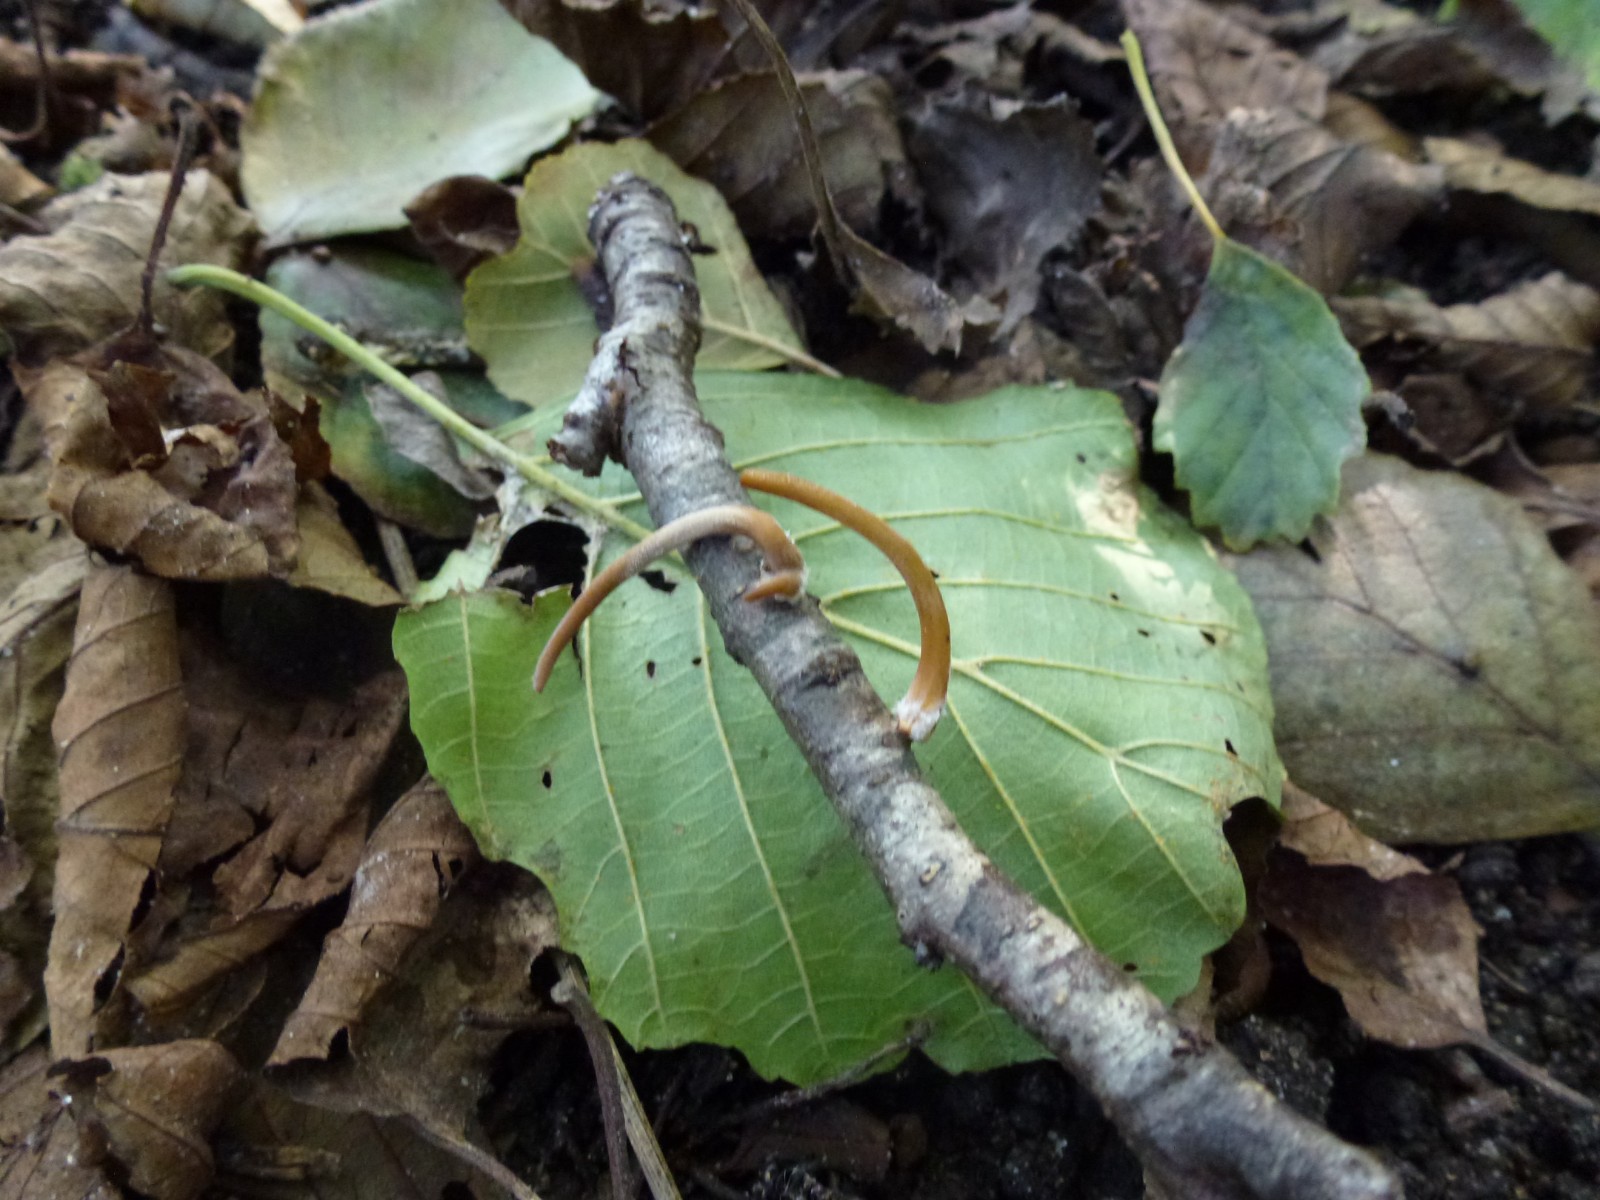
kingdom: Fungi
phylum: Basidiomycota
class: Agaricomycetes
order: Agaricales
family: Typhulaceae
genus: Typhula
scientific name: Typhula fistulosa
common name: pibet rørkølle
